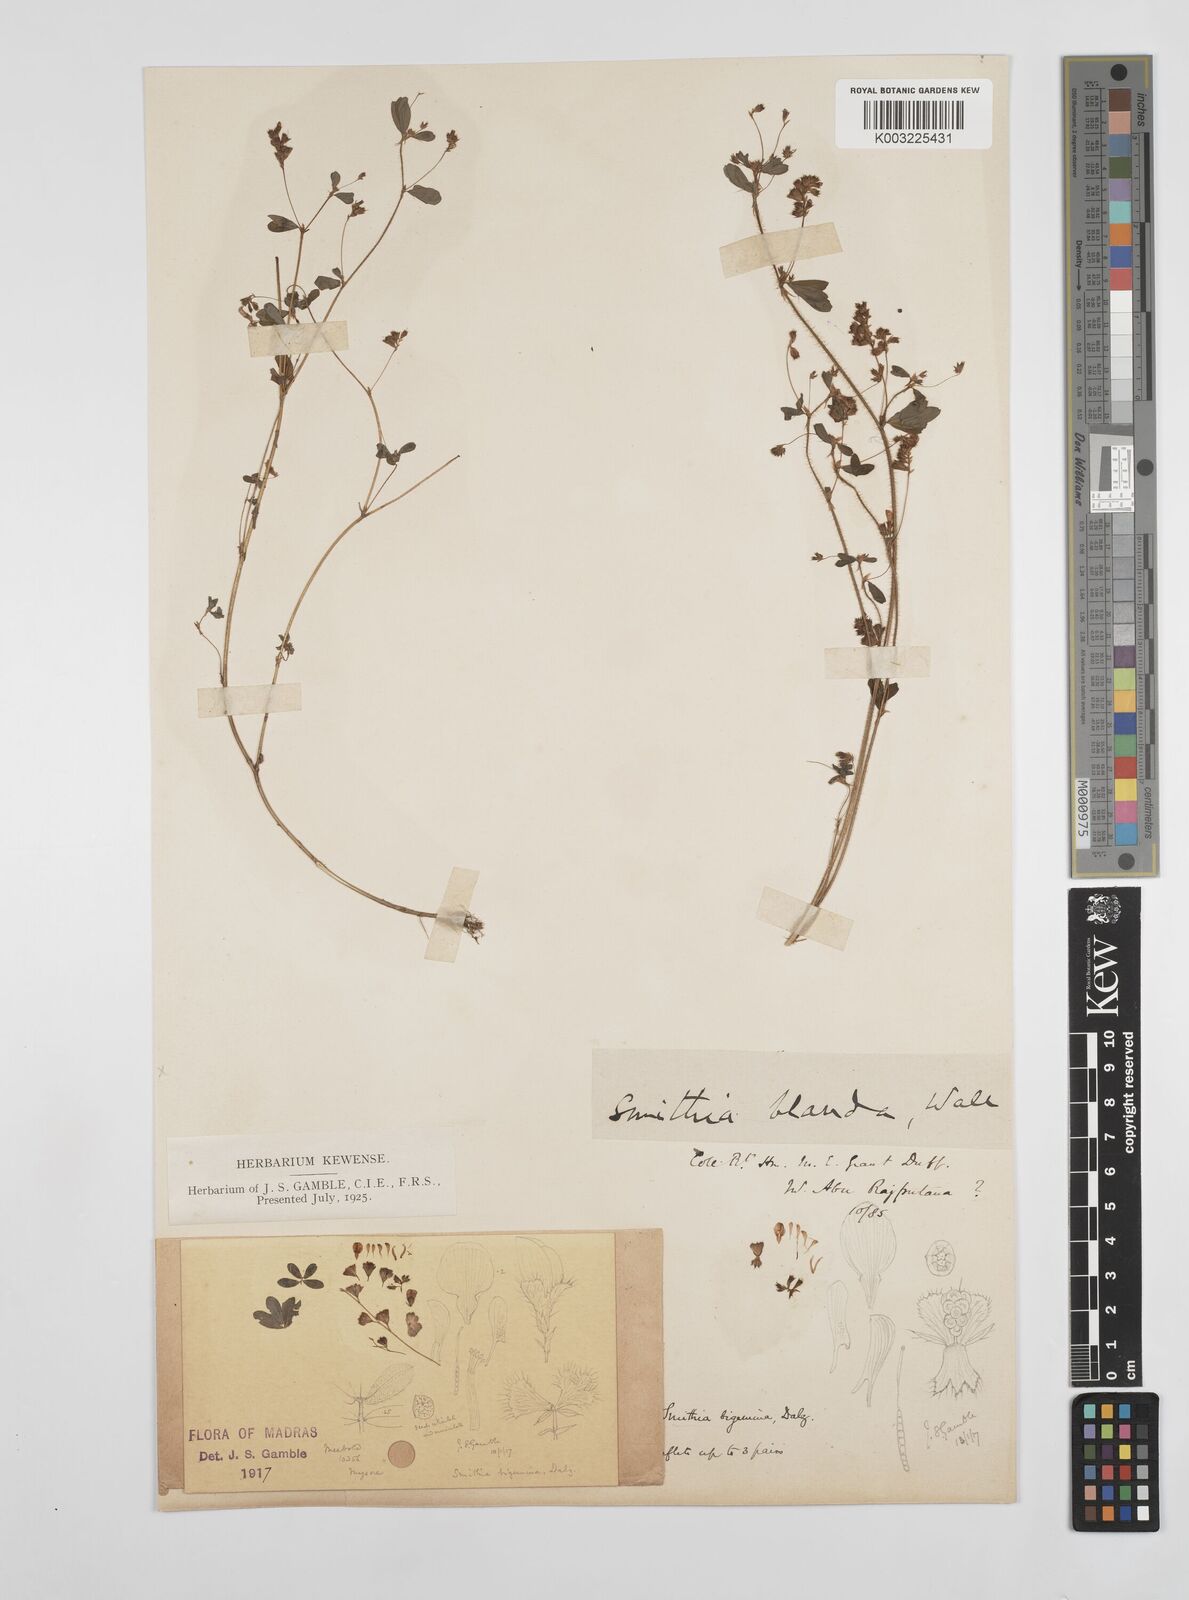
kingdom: Plantae
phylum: Tracheophyta
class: Magnoliopsida
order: Fabales
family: Fabaceae
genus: Smithia
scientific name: Smithia bigemina
